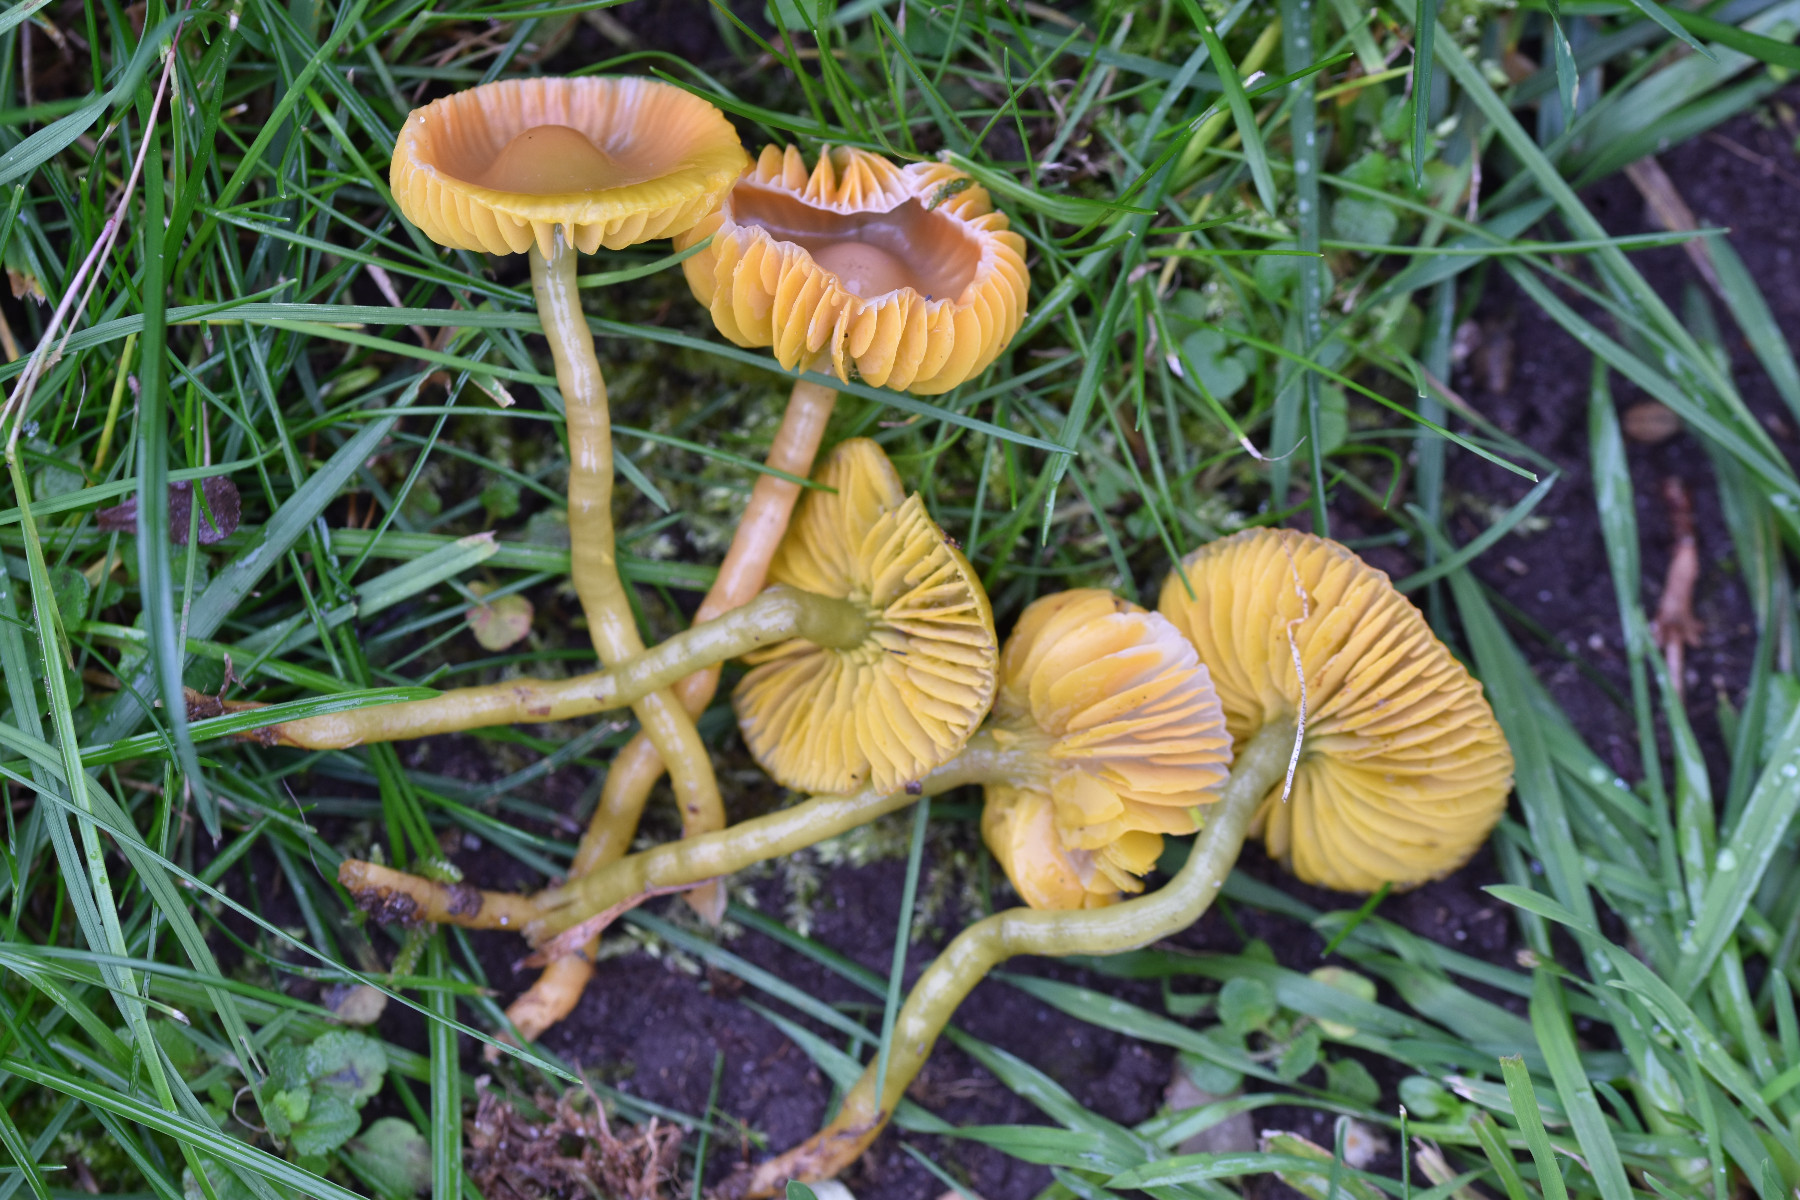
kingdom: Fungi
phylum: Basidiomycota
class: Agaricomycetes
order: Agaricales
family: Hygrophoraceae
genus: Gliophorus
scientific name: Gliophorus psittacinus
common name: papegøje-vokshat
